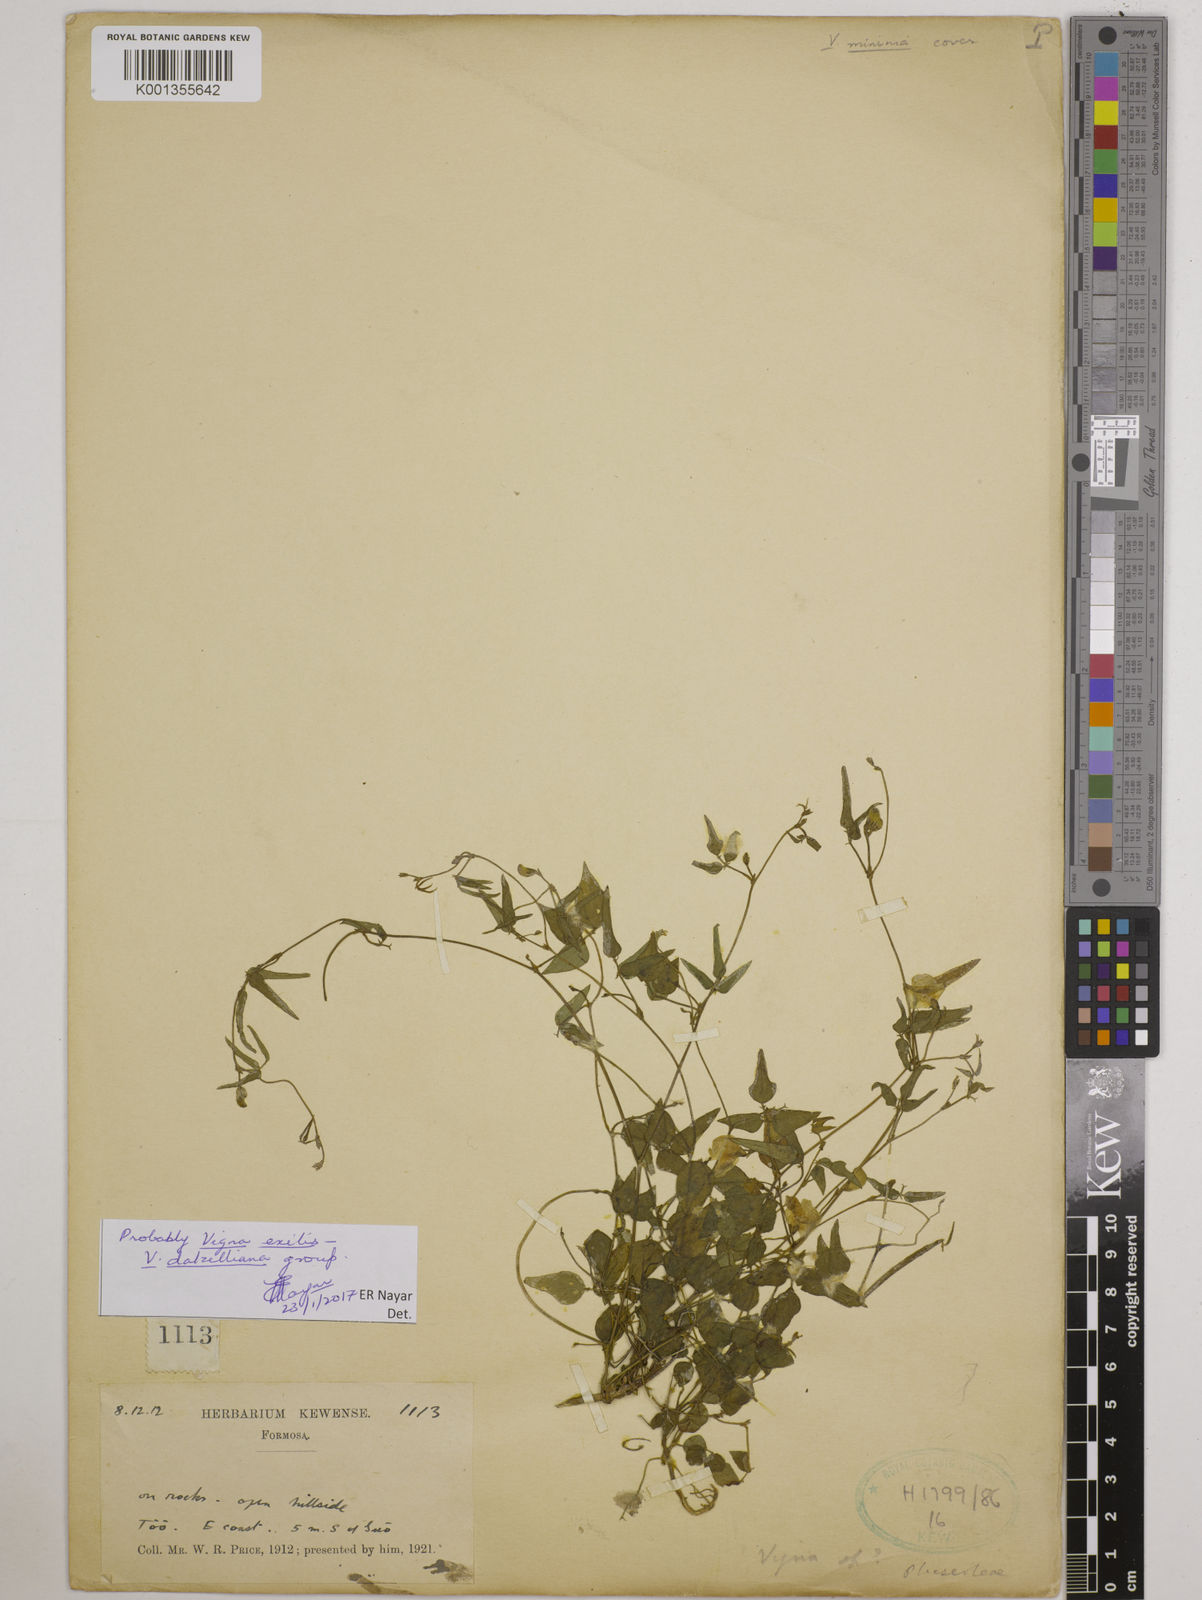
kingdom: Plantae
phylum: Tracheophyta
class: Magnoliopsida
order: Fabales
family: Fabaceae
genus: Vigna
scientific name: Vigna
